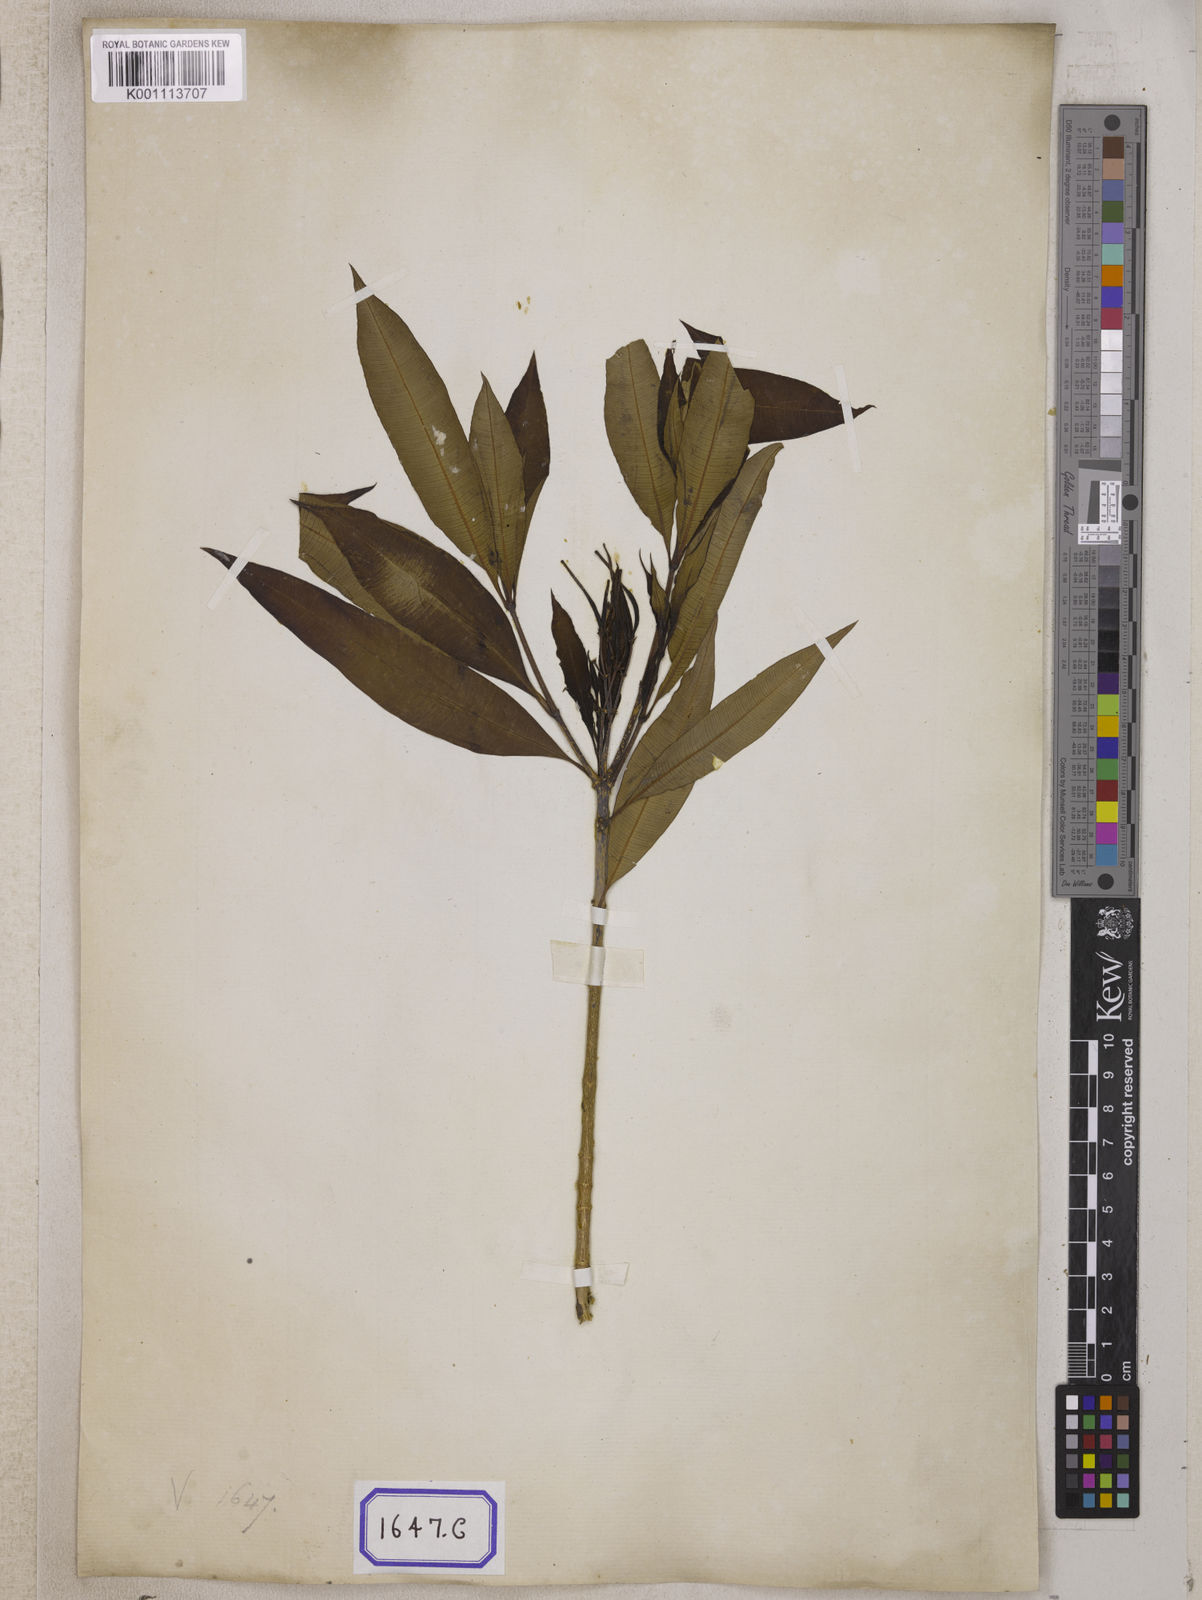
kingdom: Plantae
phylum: Tracheophyta
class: Magnoliopsida
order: Gentianales
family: Apocynaceae
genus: Alstonia
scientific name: Alstonia venenata
